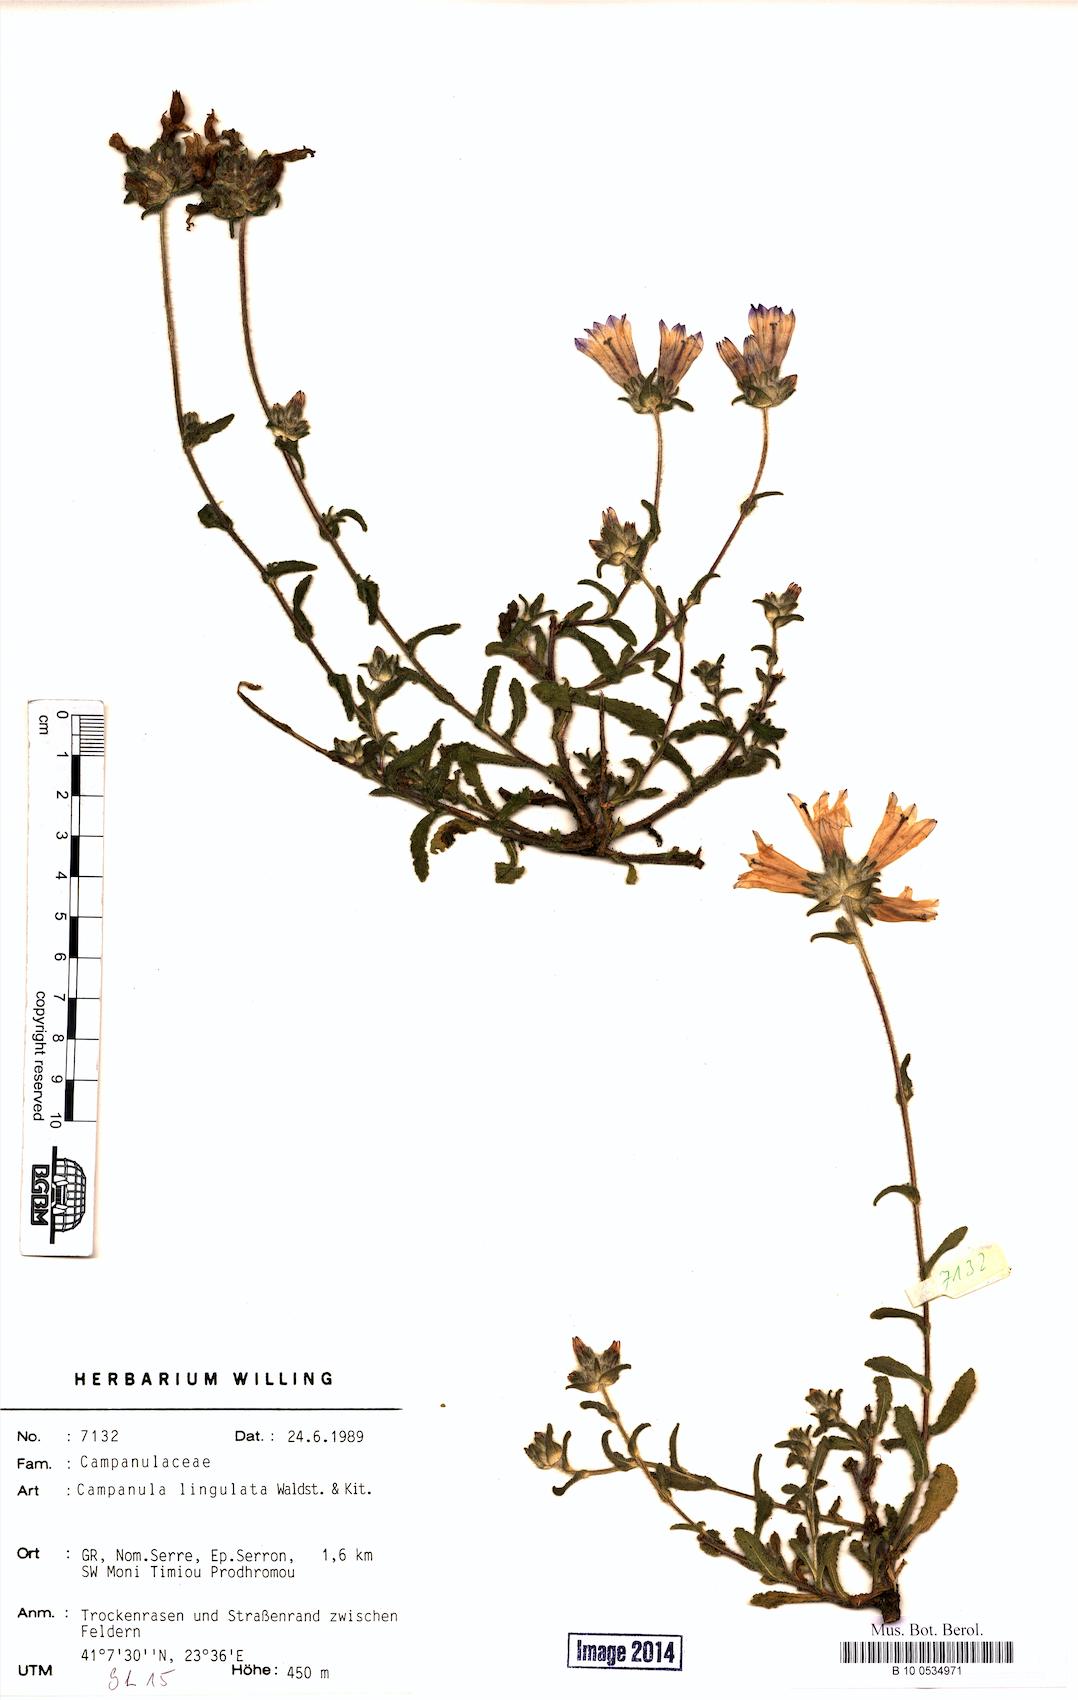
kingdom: Plantae
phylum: Tracheophyta
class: Magnoliopsida
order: Asterales
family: Campanulaceae
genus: Campanula
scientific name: Campanula lingulata
